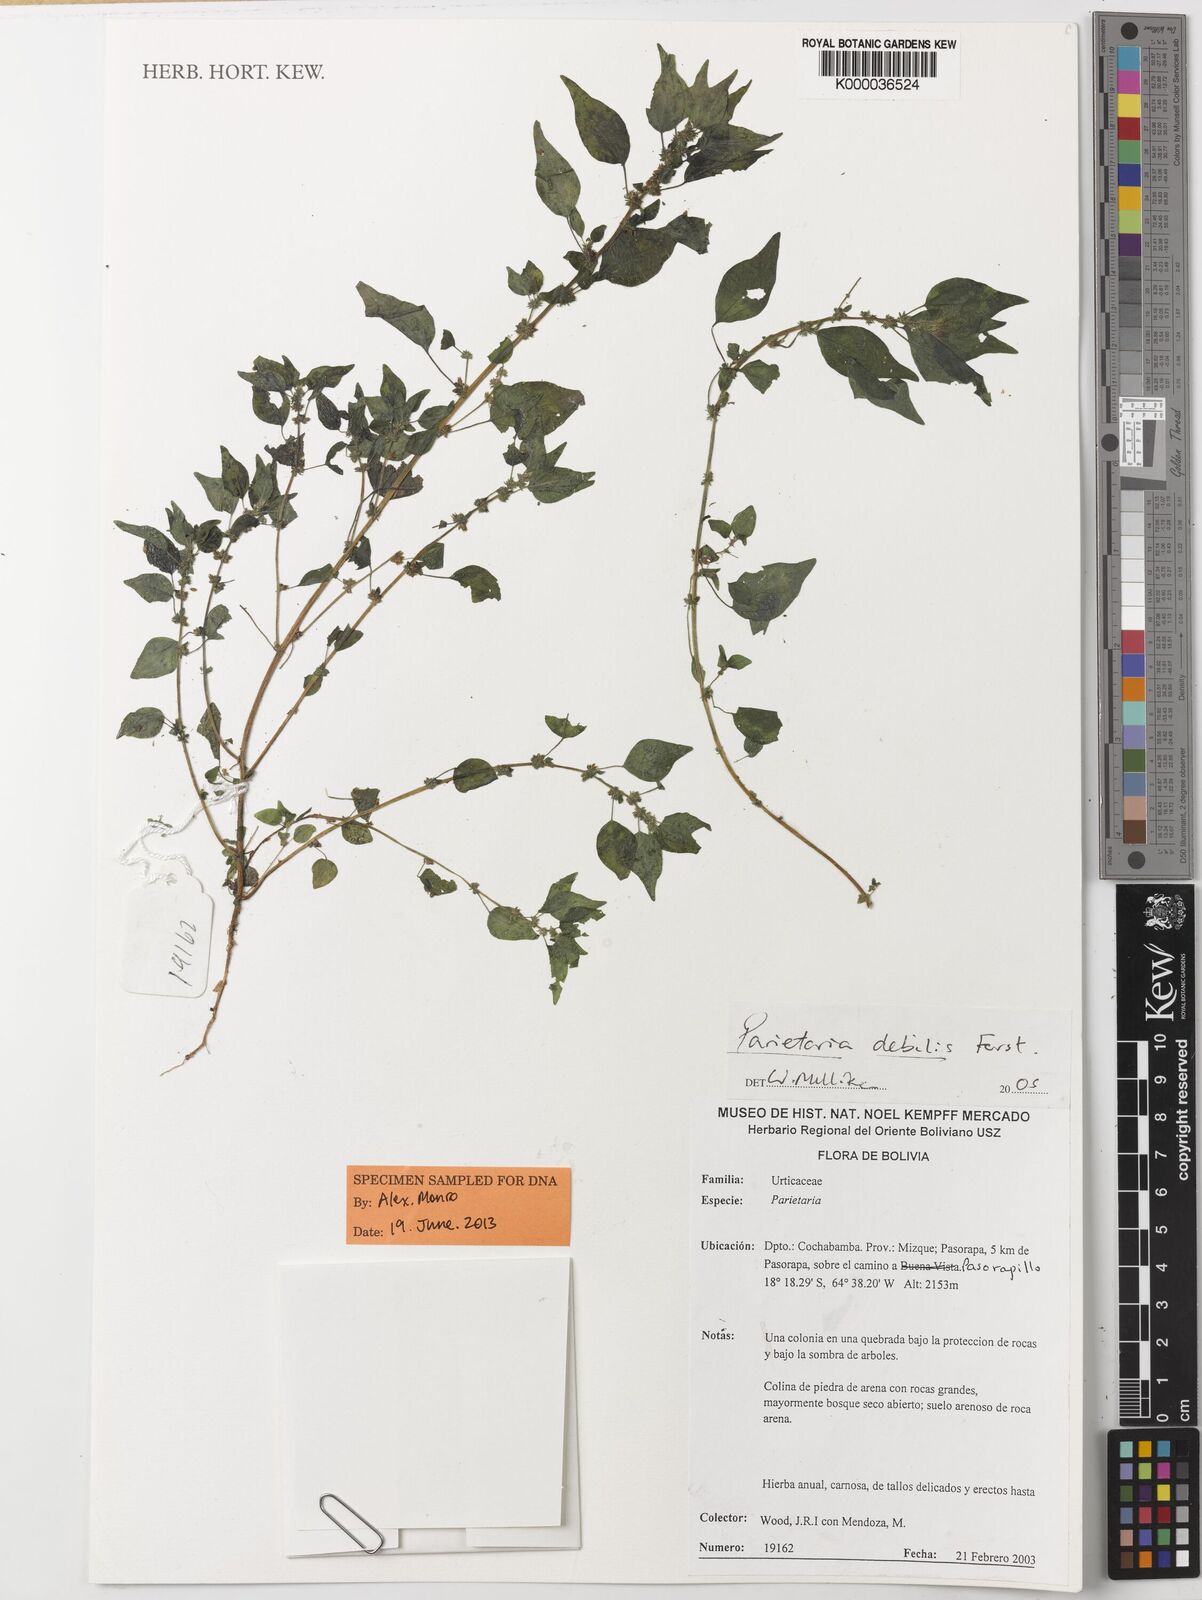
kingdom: Plantae
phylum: Tracheophyta
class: Magnoliopsida
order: Rosales
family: Urticaceae
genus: Parietaria
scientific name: Parietaria debilis
